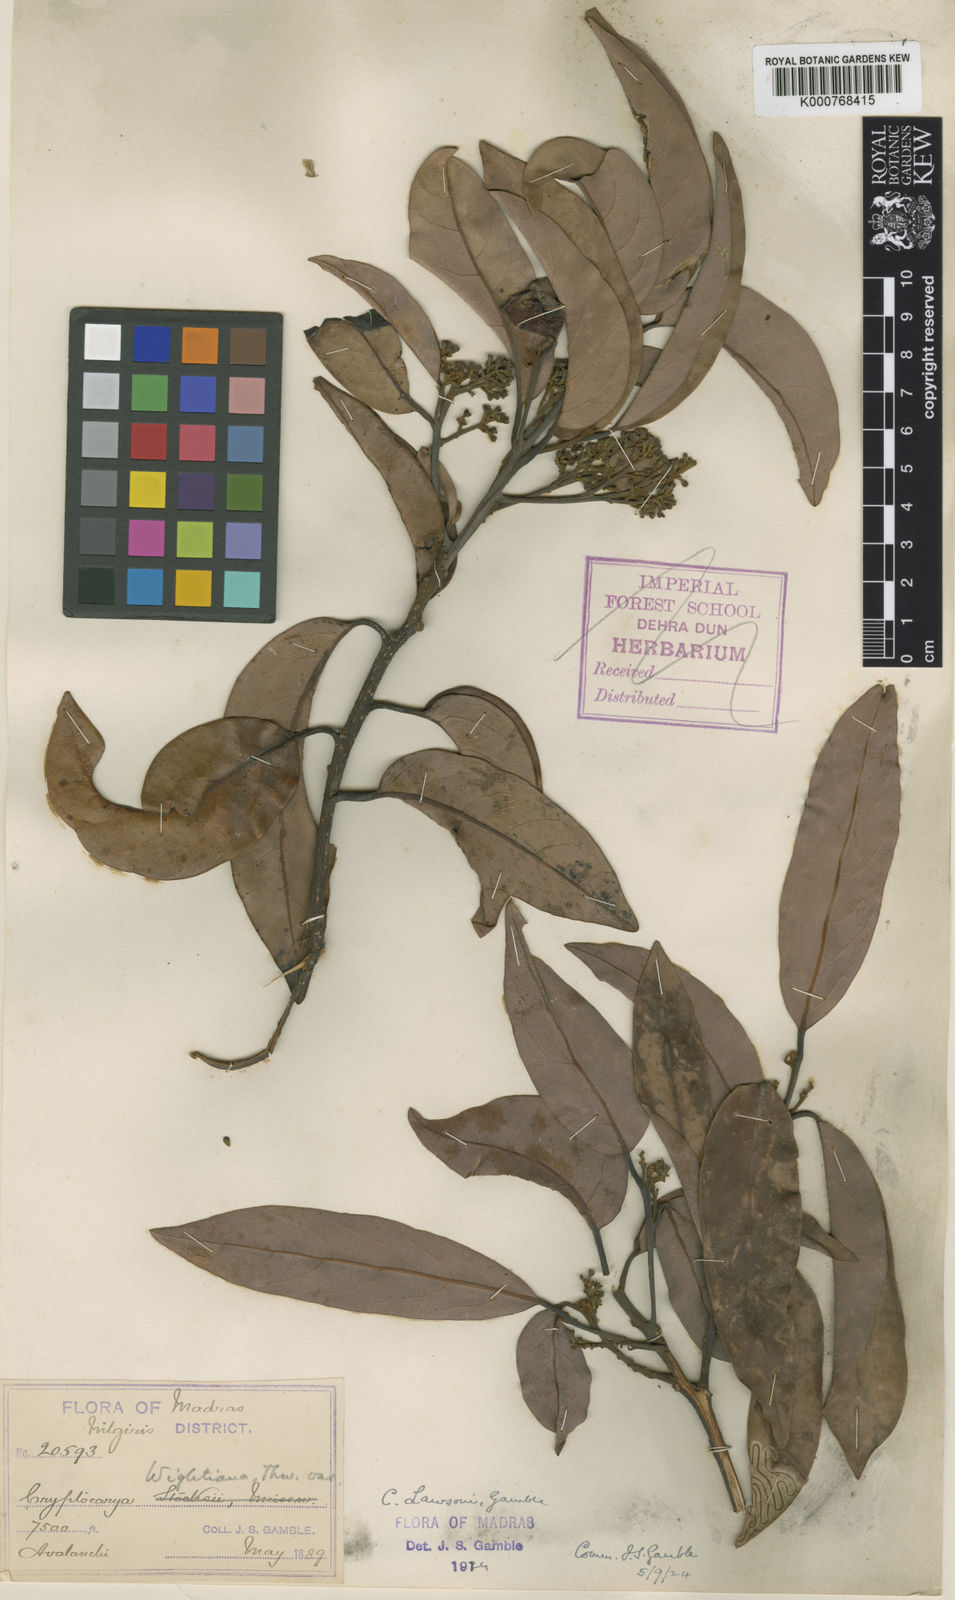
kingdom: Plantae
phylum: Tracheophyta
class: Magnoliopsida
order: Laurales
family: Lauraceae
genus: Cryptocarya
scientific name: Cryptocarya lawsonii
